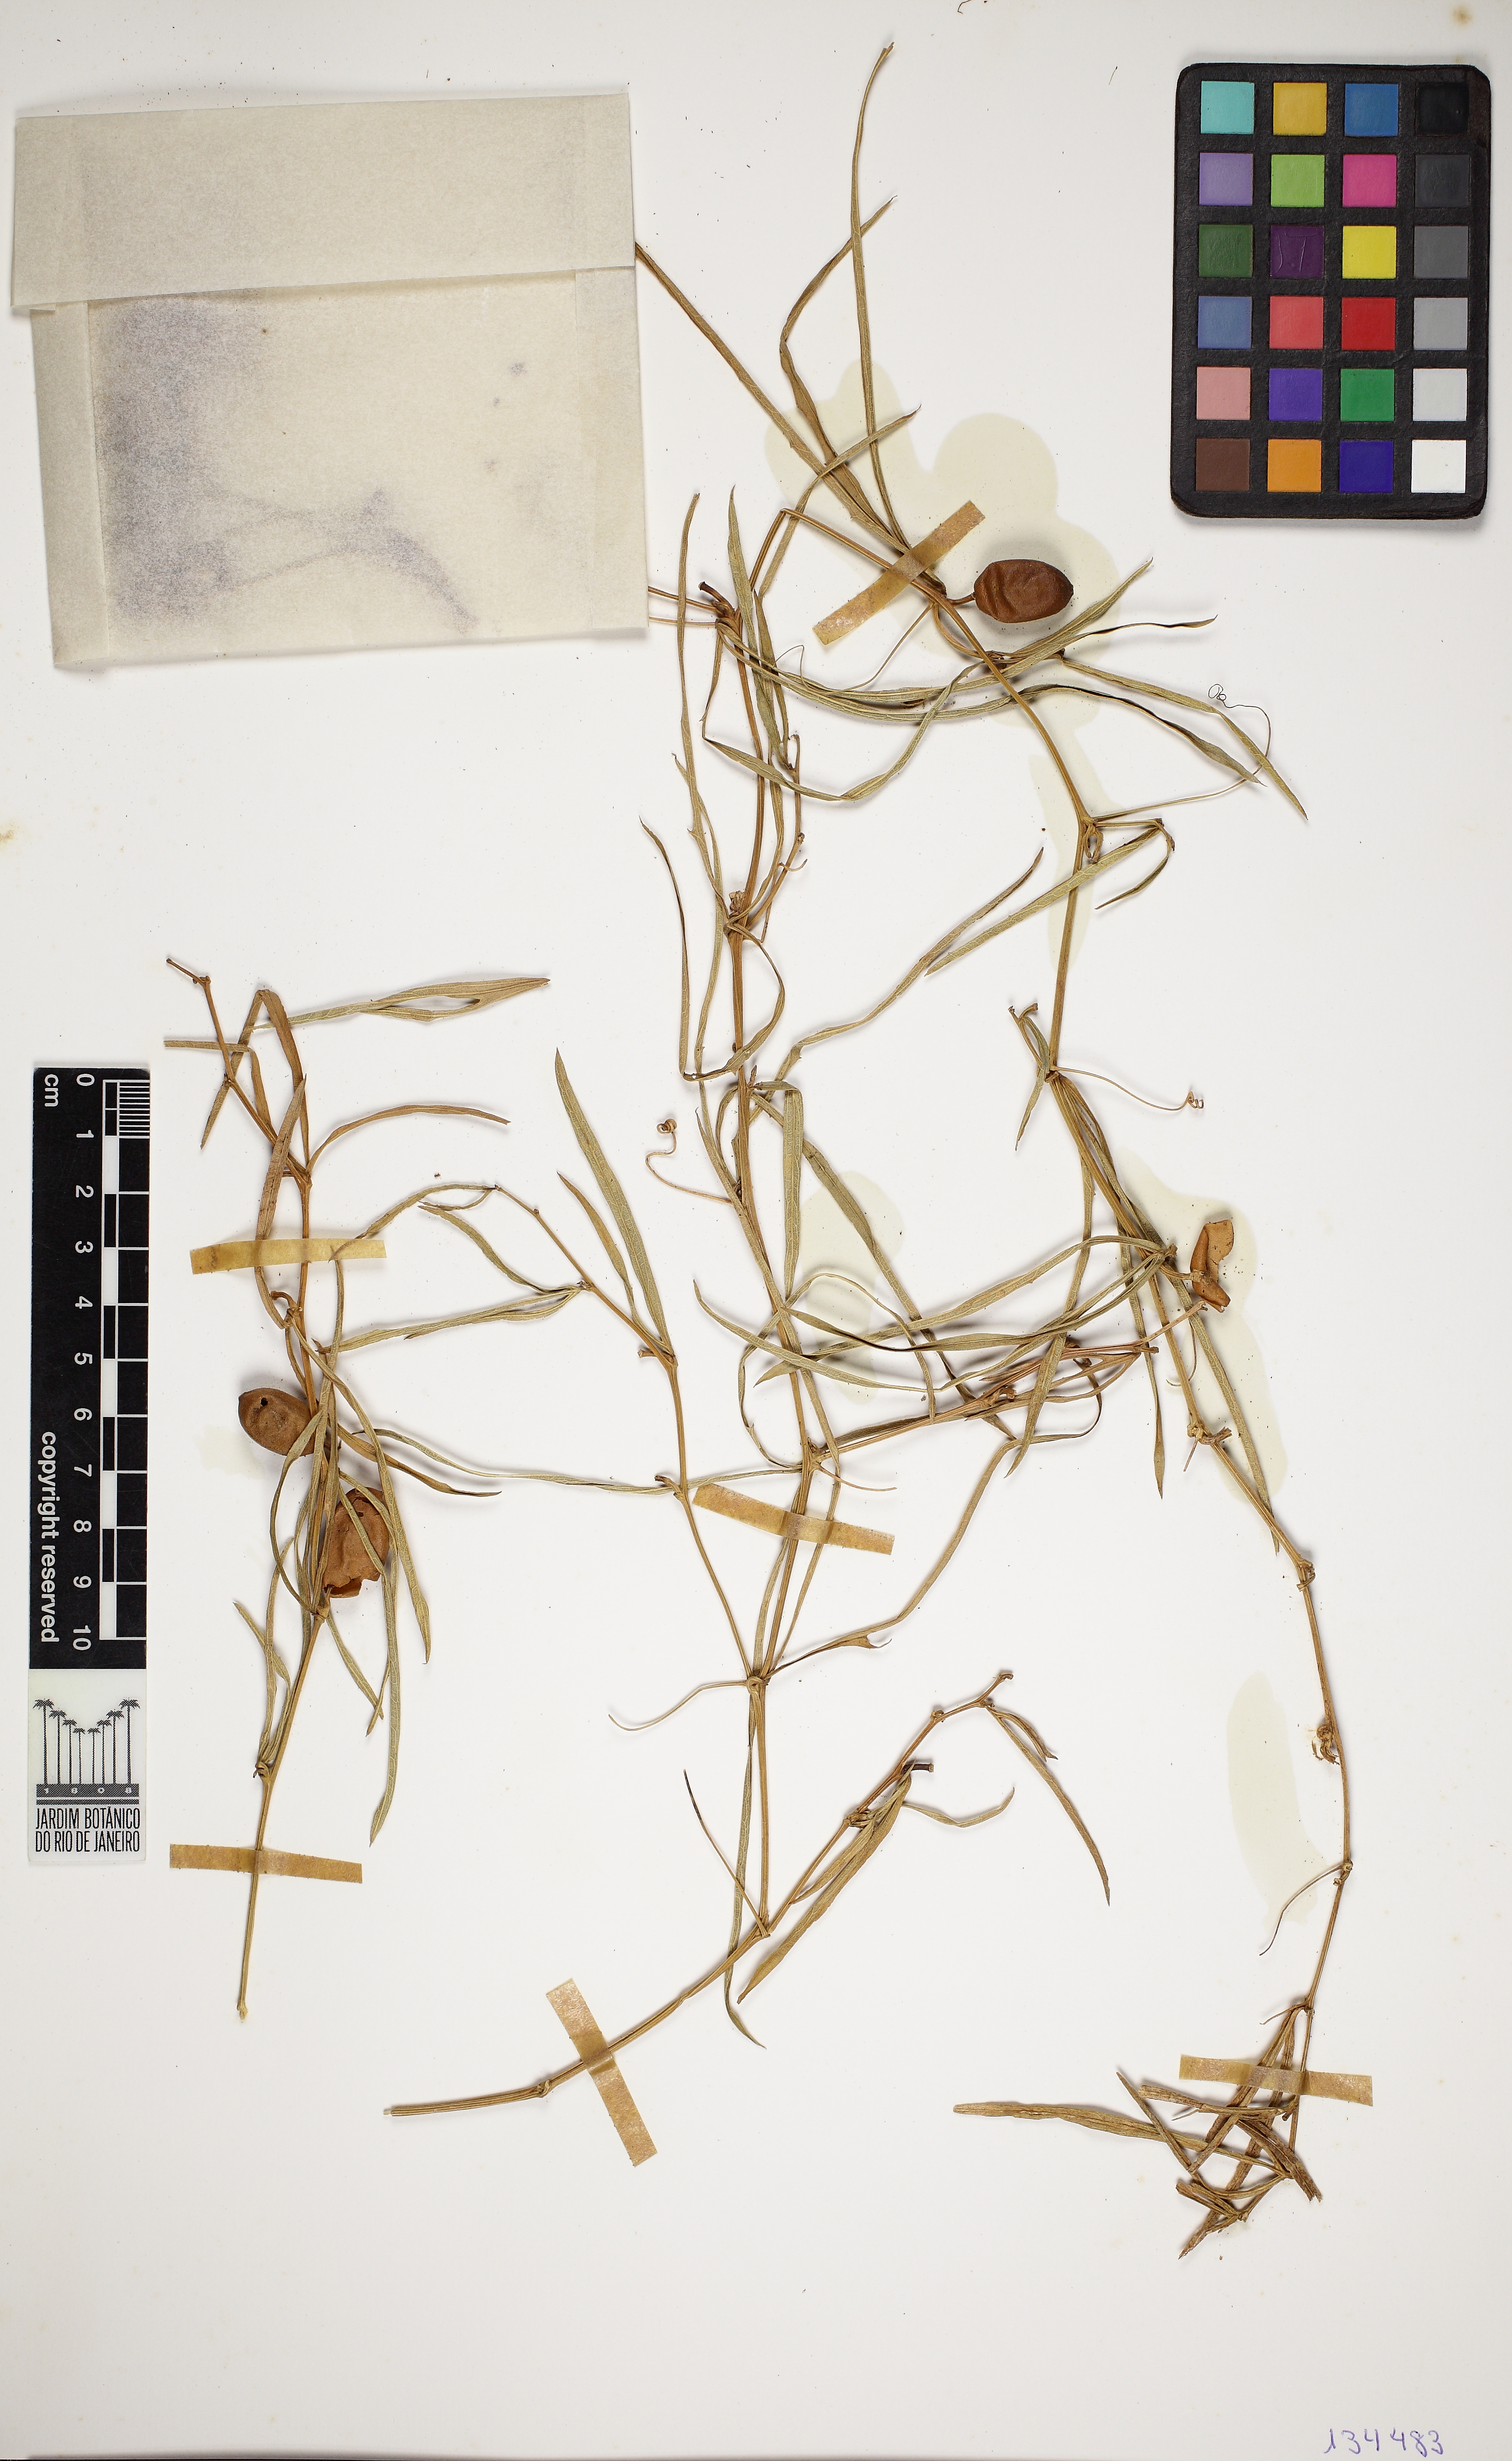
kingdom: Plantae
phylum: Tracheophyta
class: Magnoliopsida
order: Cucurbitales
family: Cucurbitaceae
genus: Cayaponia
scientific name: Cayaponia espelina
